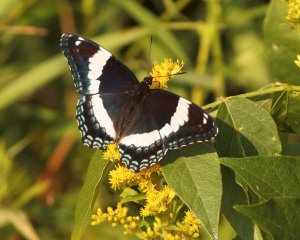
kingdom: Animalia
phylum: Arthropoda
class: Insecta
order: Lepidoptera
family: Nymphalidae
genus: Limenitis
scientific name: Limenitis arthemis
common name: Red-spotted Admiral
